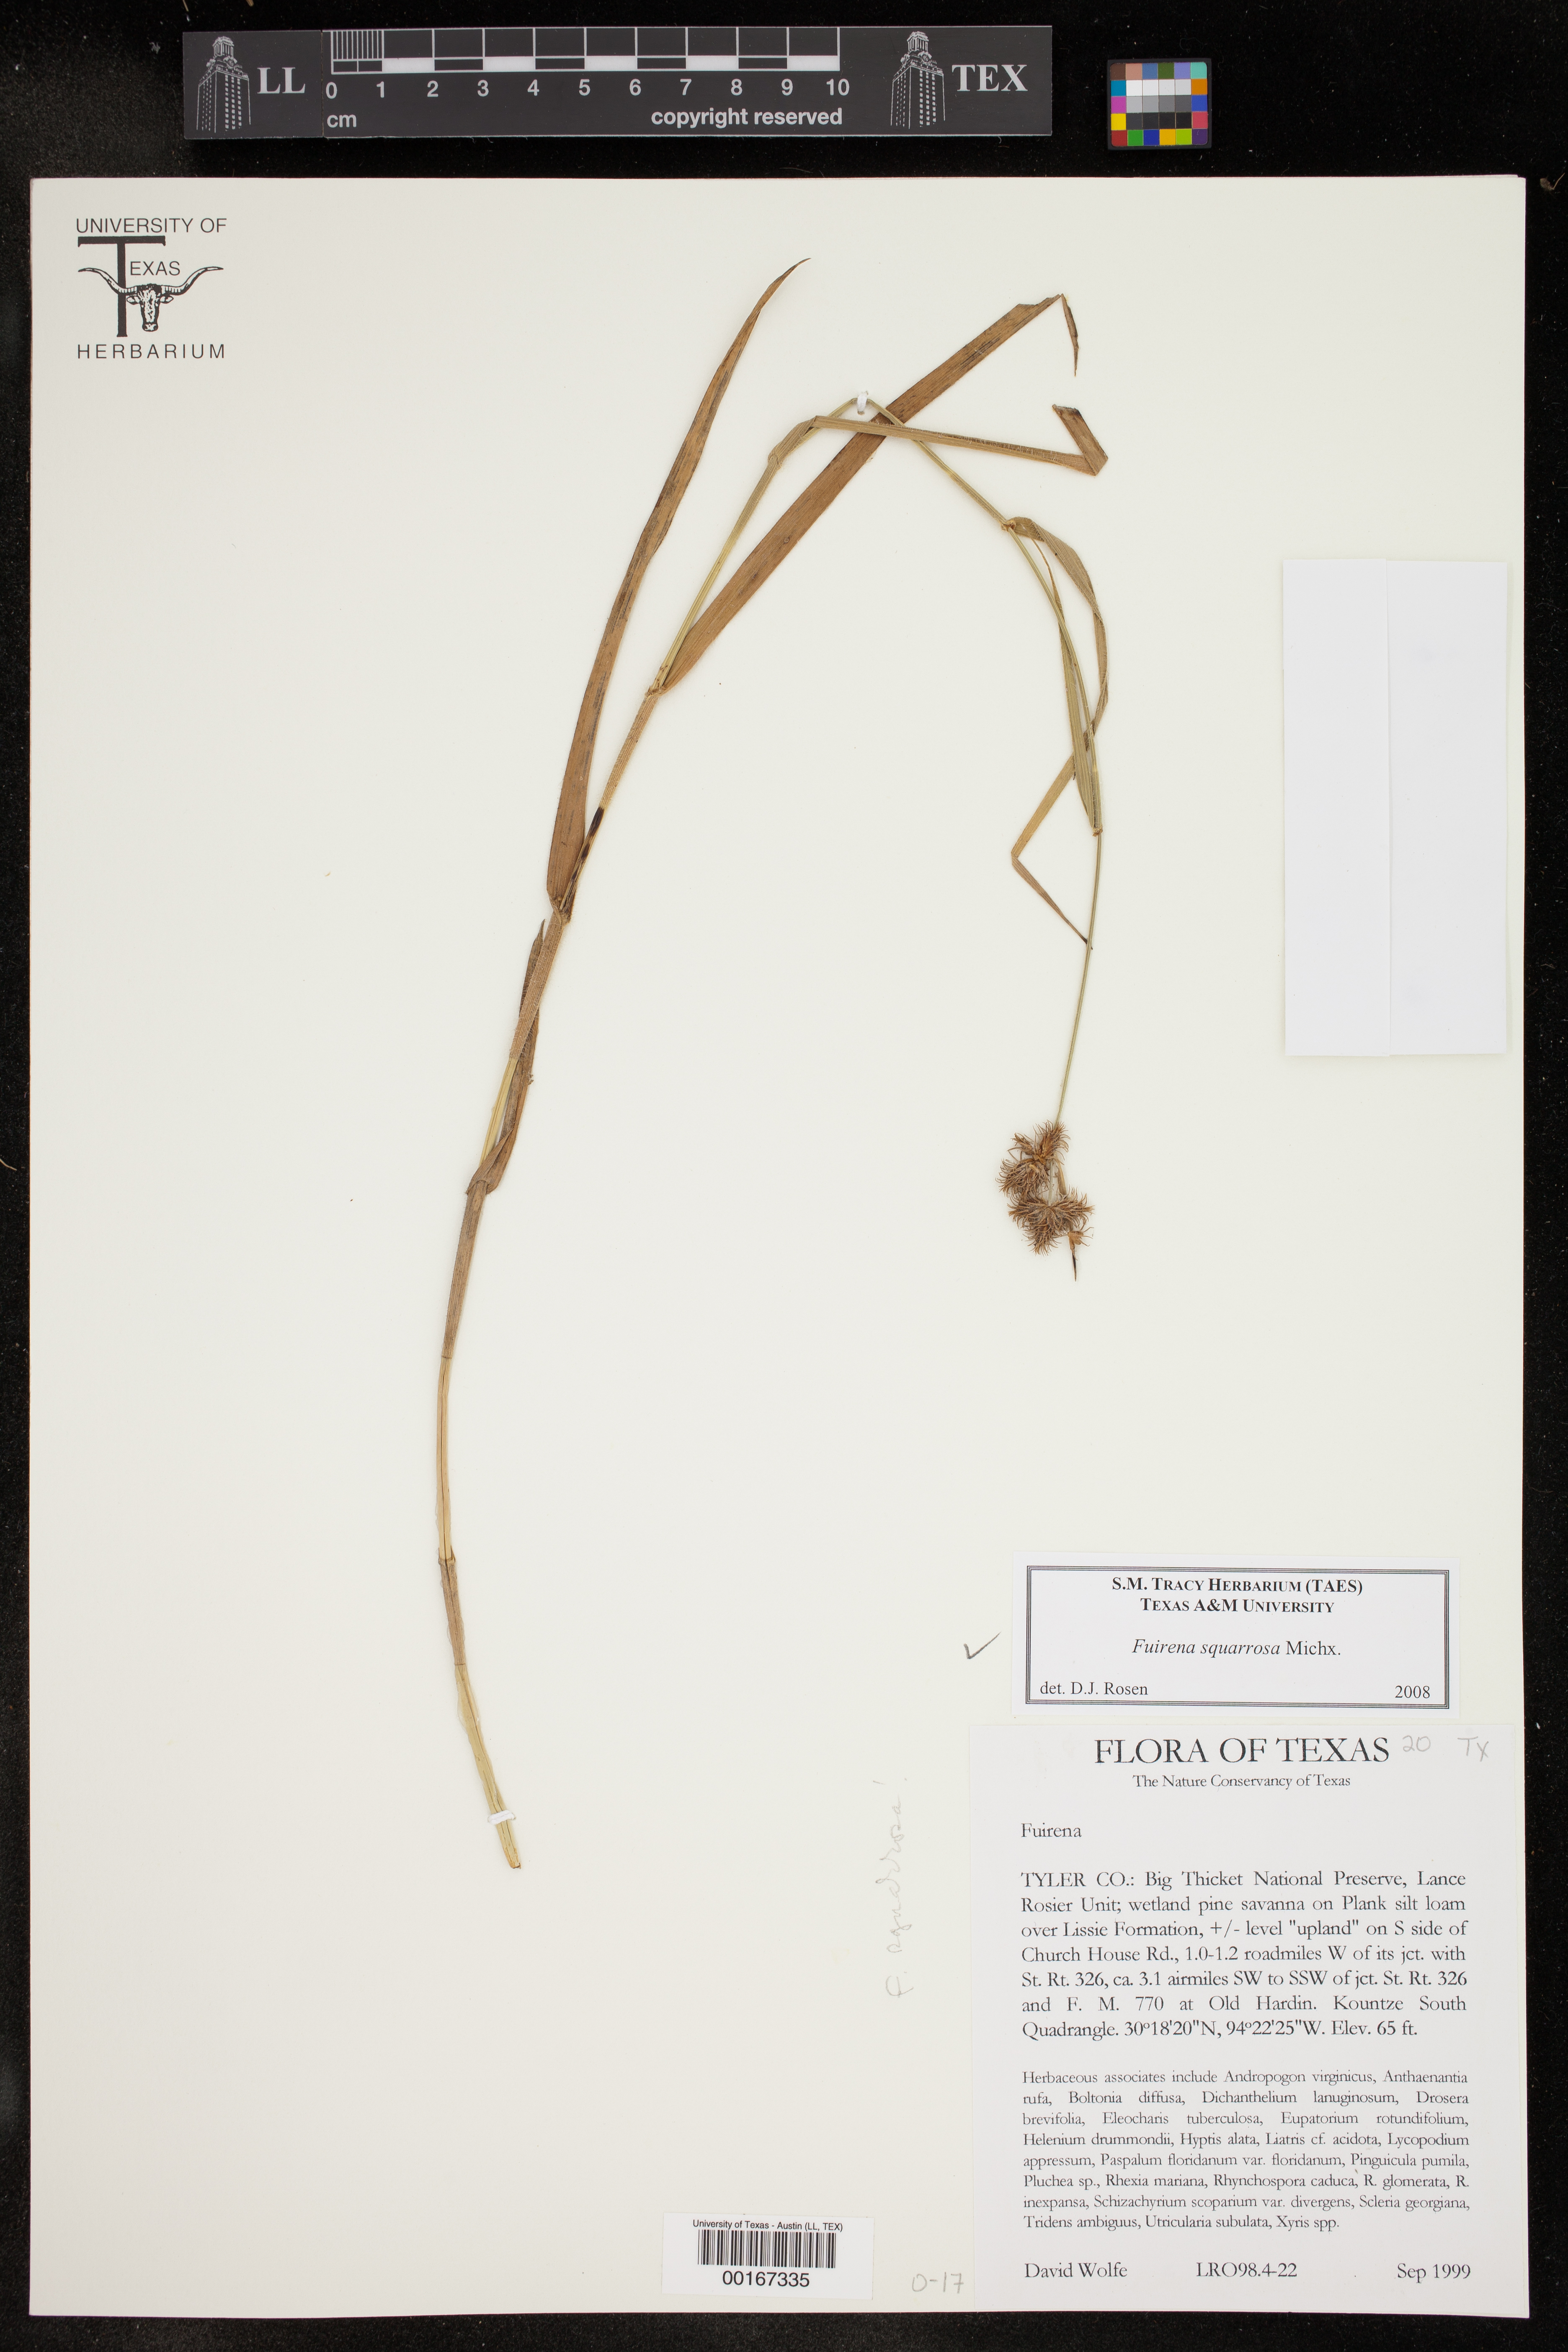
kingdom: Plantae
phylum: Tracheophyta
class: Liliopsida
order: Poales
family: Cyperaceae
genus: Fuirena
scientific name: Fuirena squarrosa
